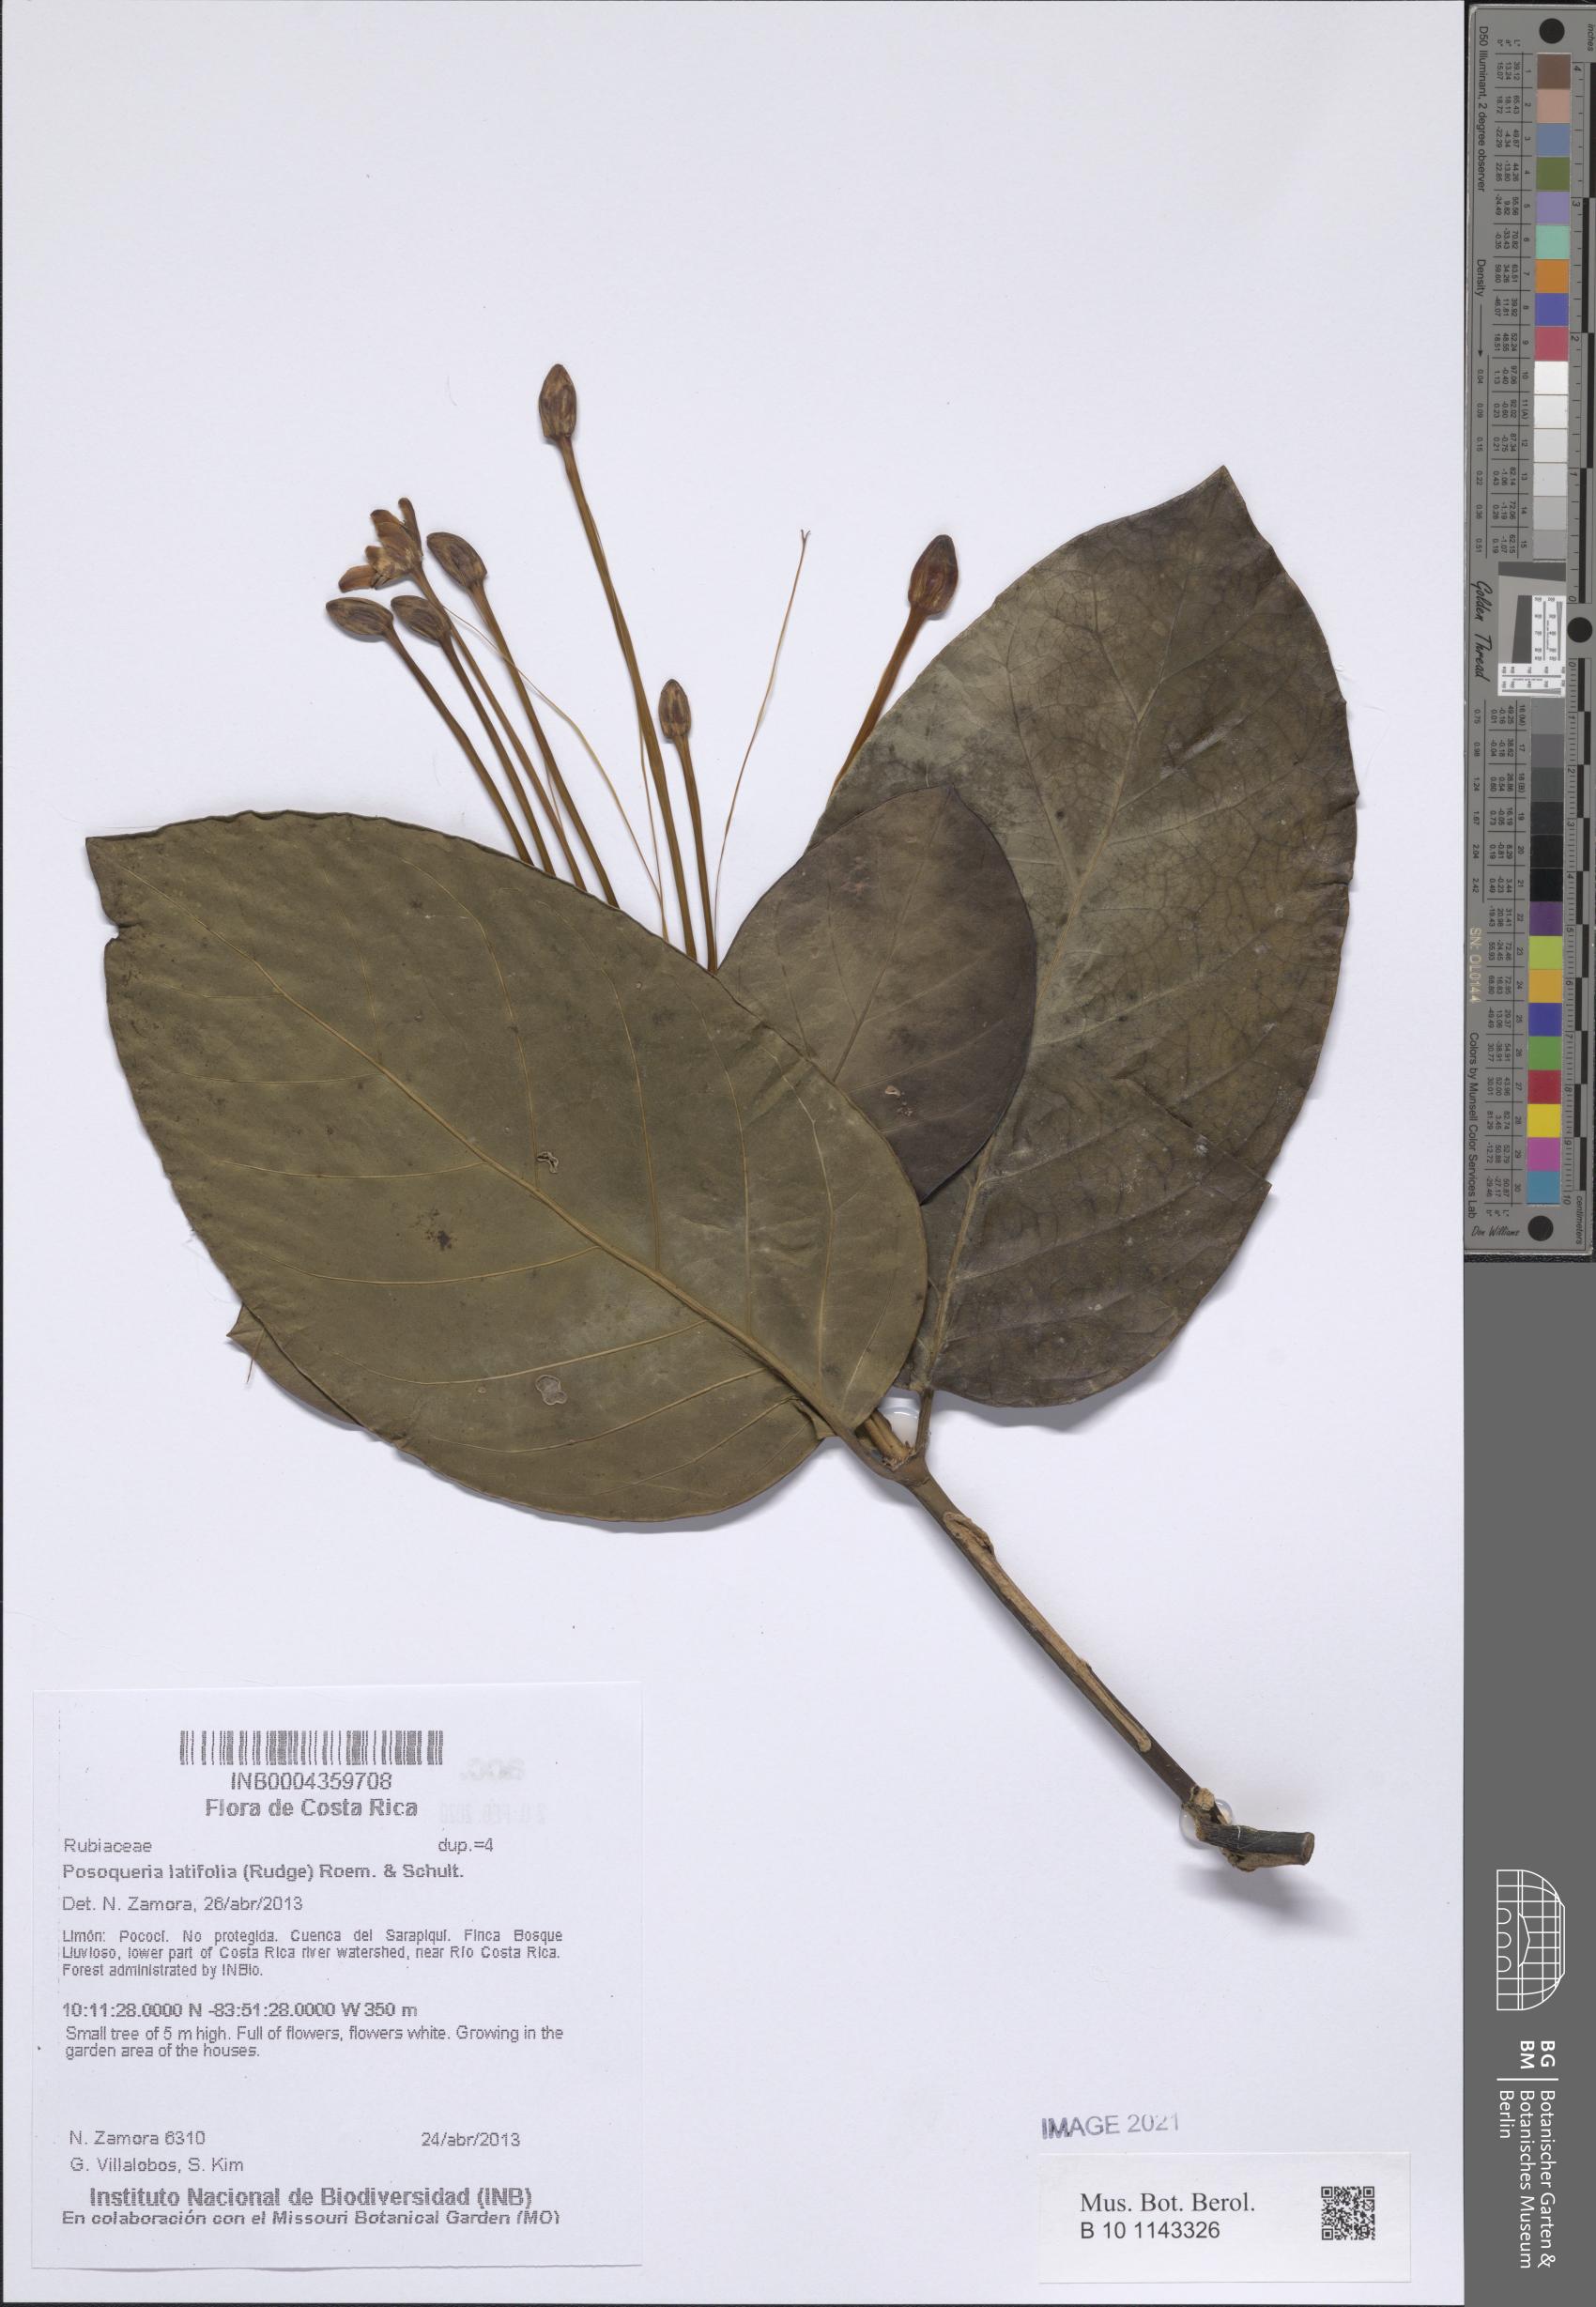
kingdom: Plantae
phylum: Tracheophyta
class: Magnoliopsida
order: Gentianales
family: Rubiaceae
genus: Posoqueria
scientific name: Posoqueria latifolia
